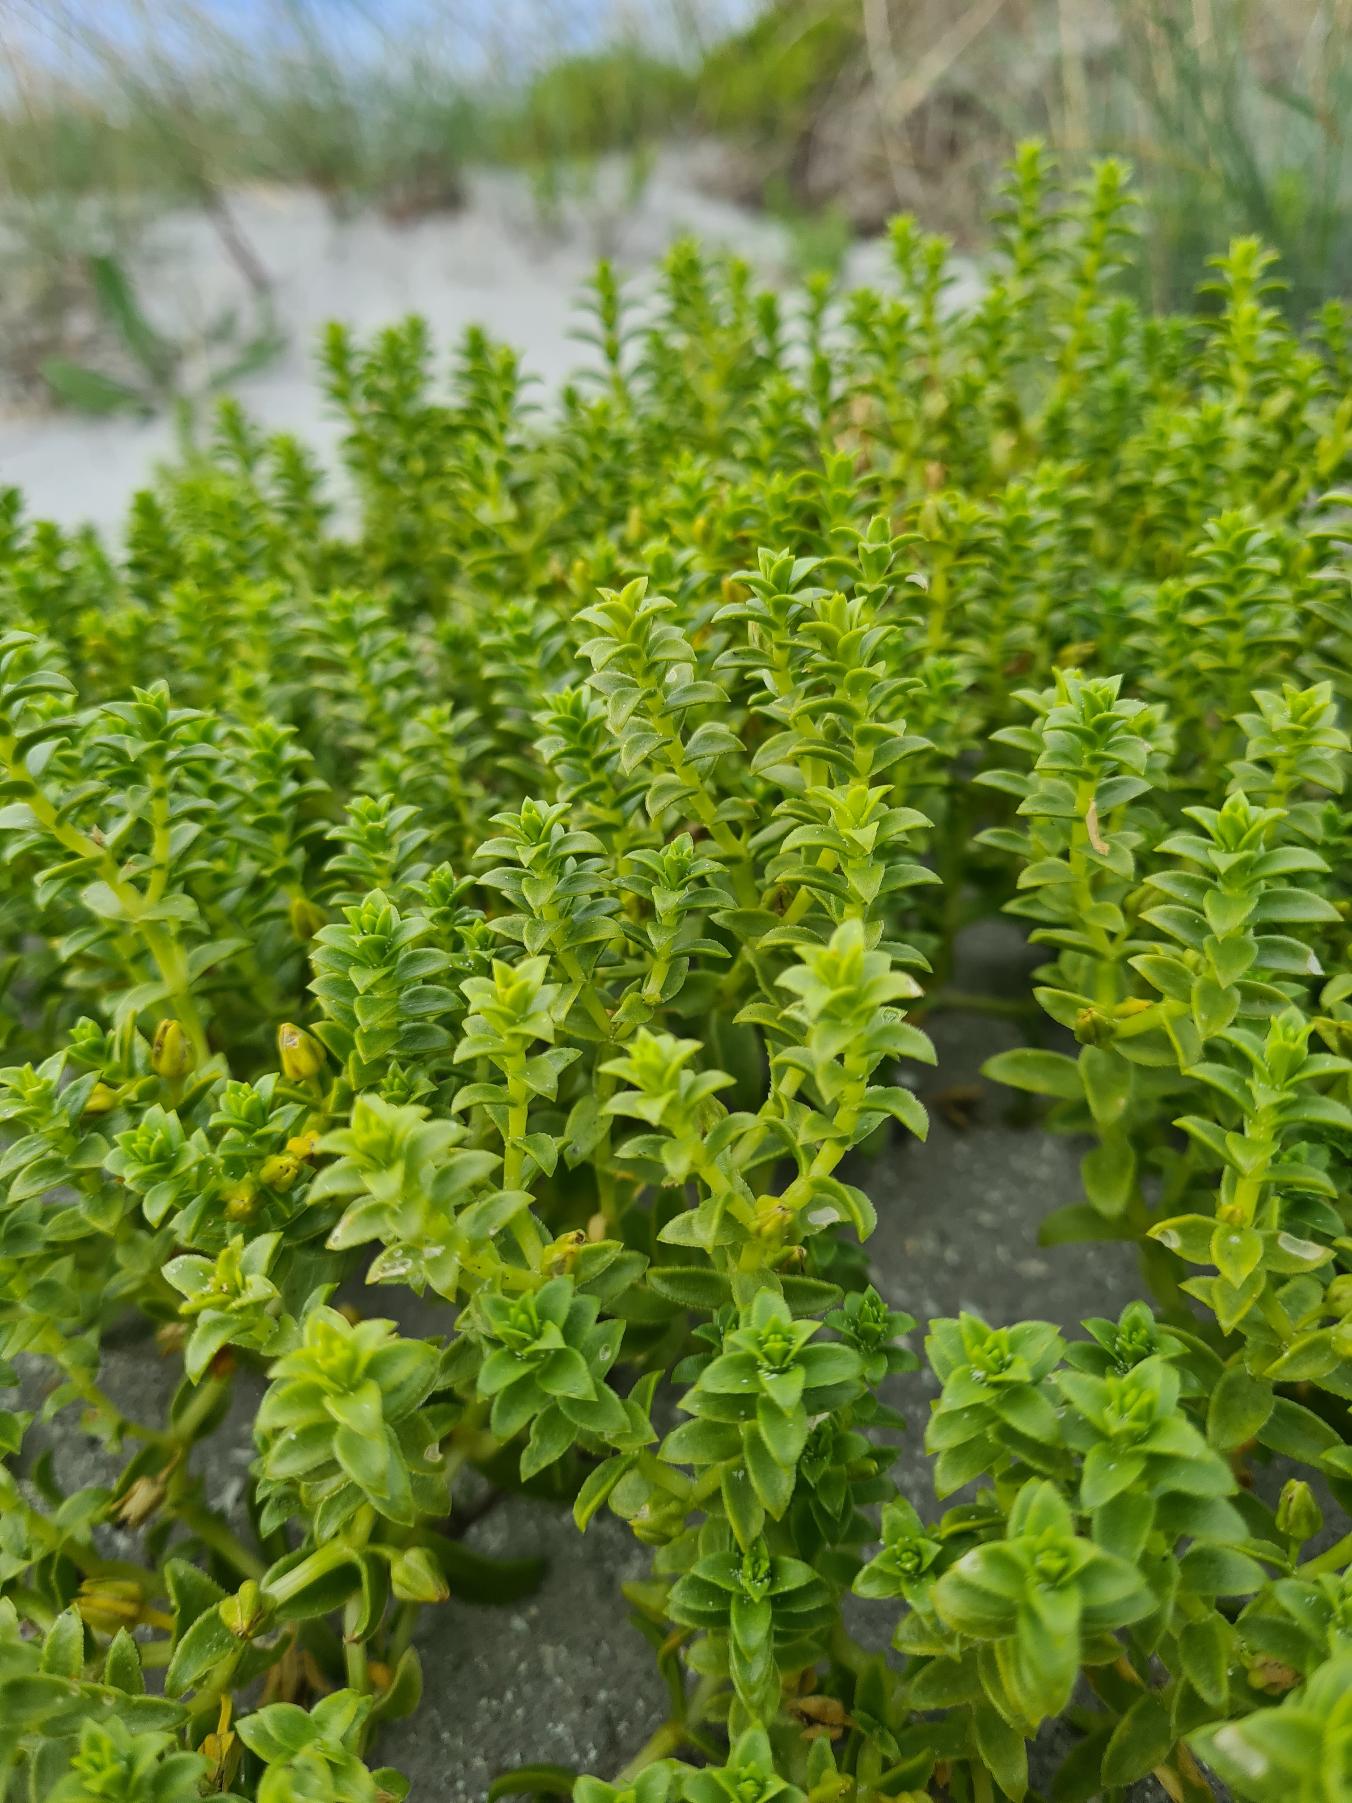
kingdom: Plantae
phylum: Tracheophyta
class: Magnoliopsida
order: Caryophyllales
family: Caryophyllaceae
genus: Honckenya
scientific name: Honckenya peploides
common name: Strandarve
